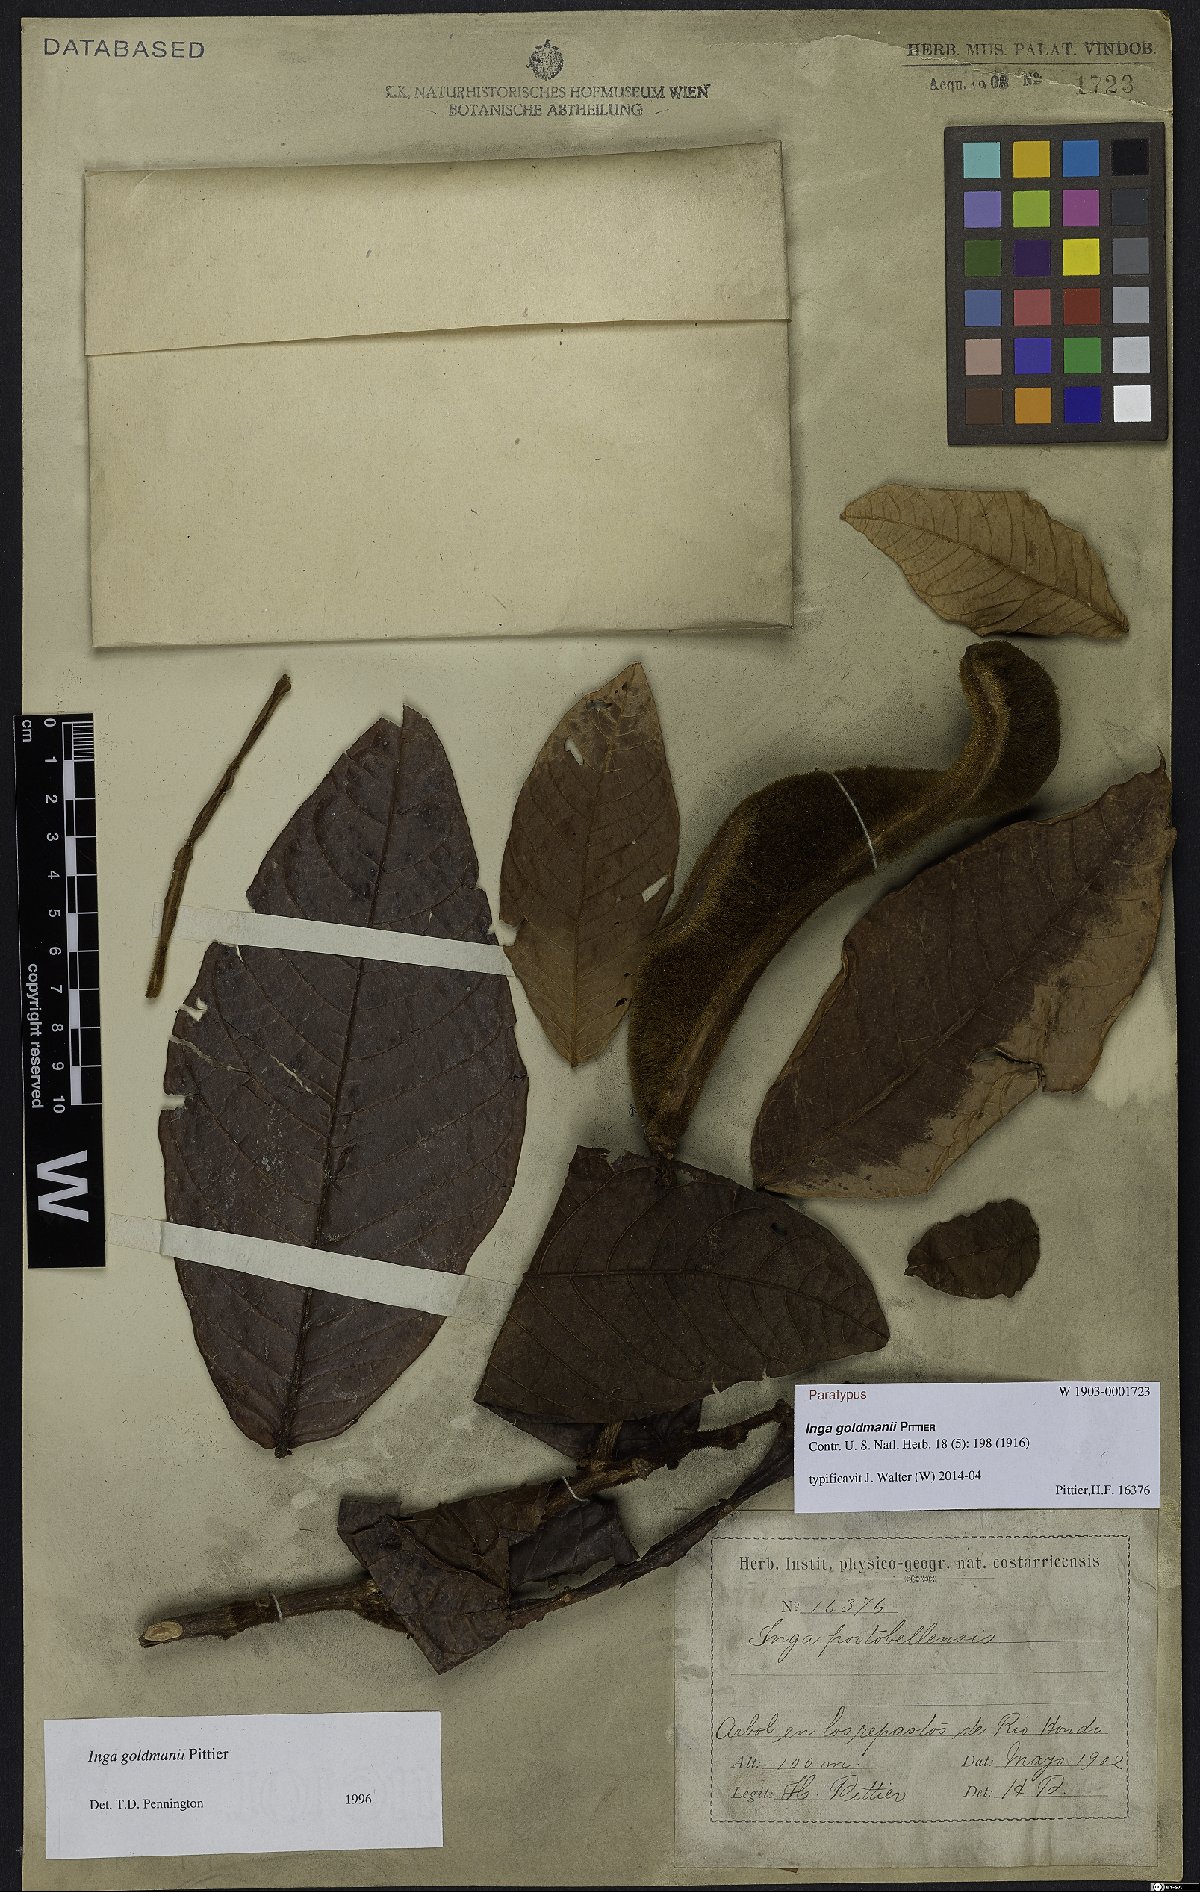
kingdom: Plantae
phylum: Tracheophyta
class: Magnoliopsida
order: Fabales
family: Fabaceae
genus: Inga
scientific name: Inga goldmanii
